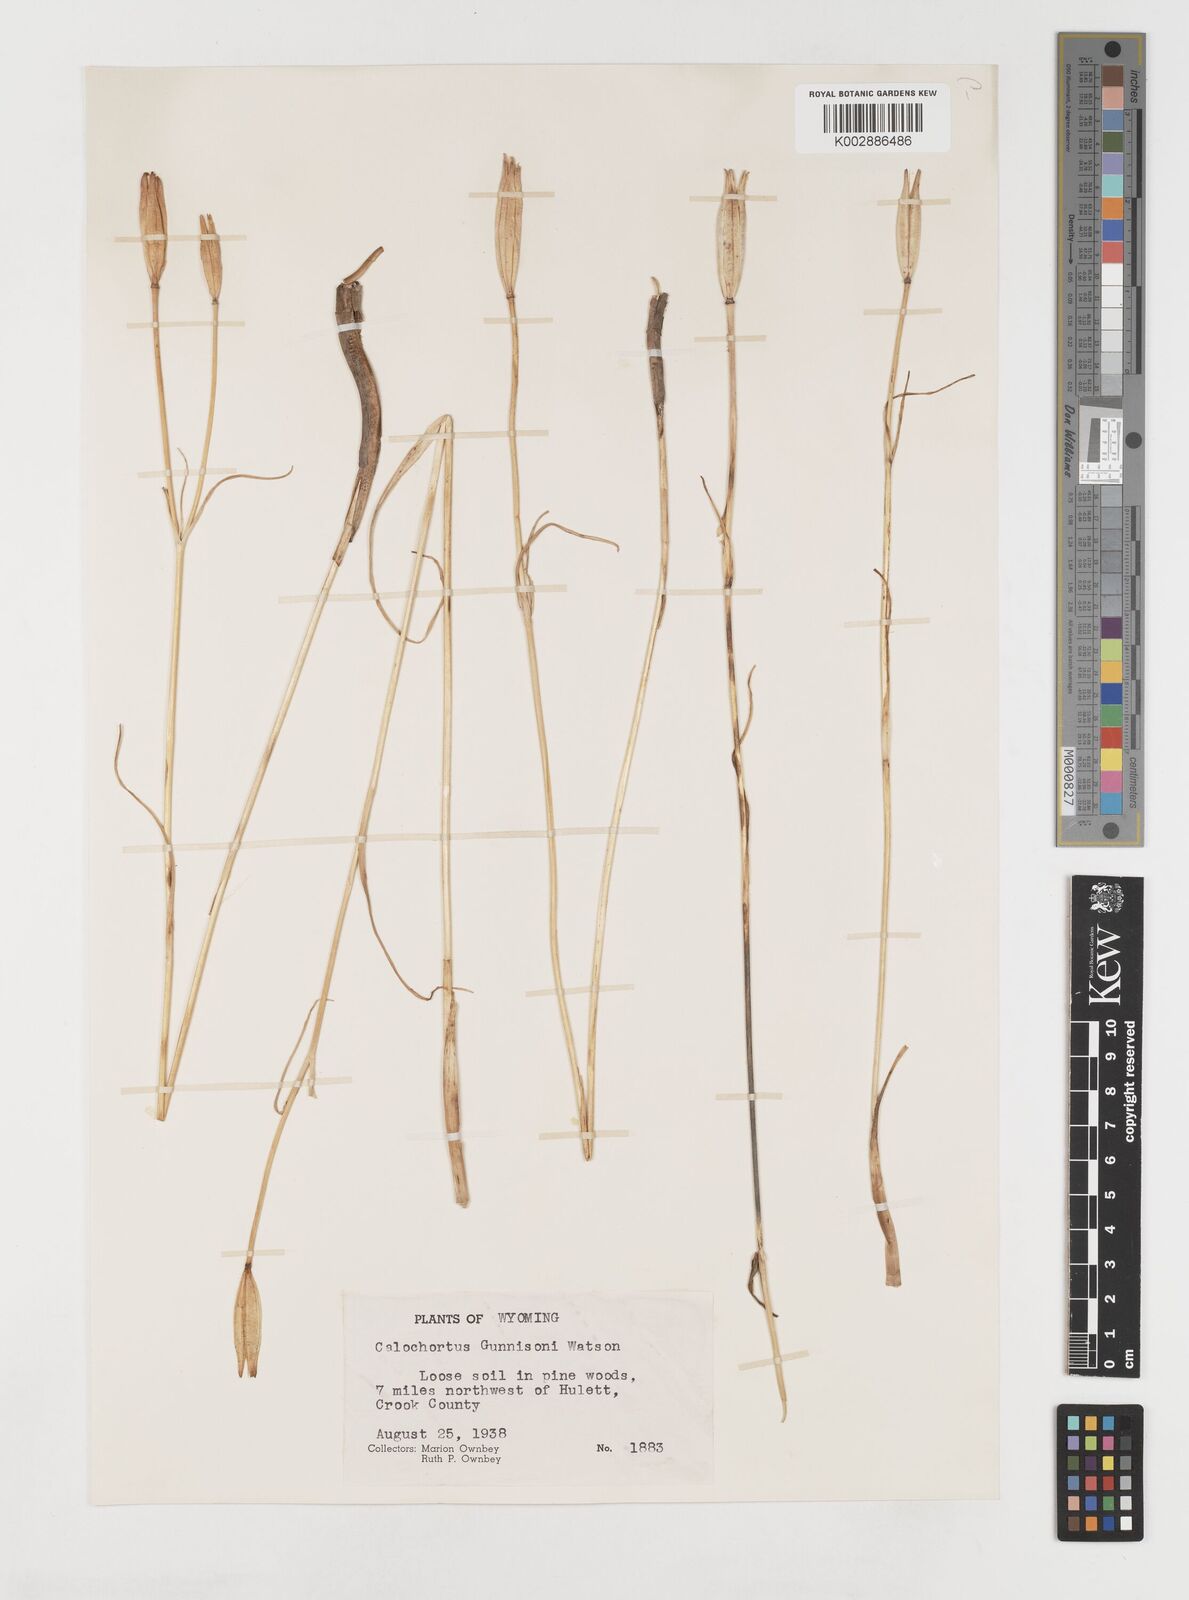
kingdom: Plantae
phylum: Tracheophyta
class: Liliopsida
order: Liliales
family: Liliaceae
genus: Calochortus
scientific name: Calochortus gunnisonii
